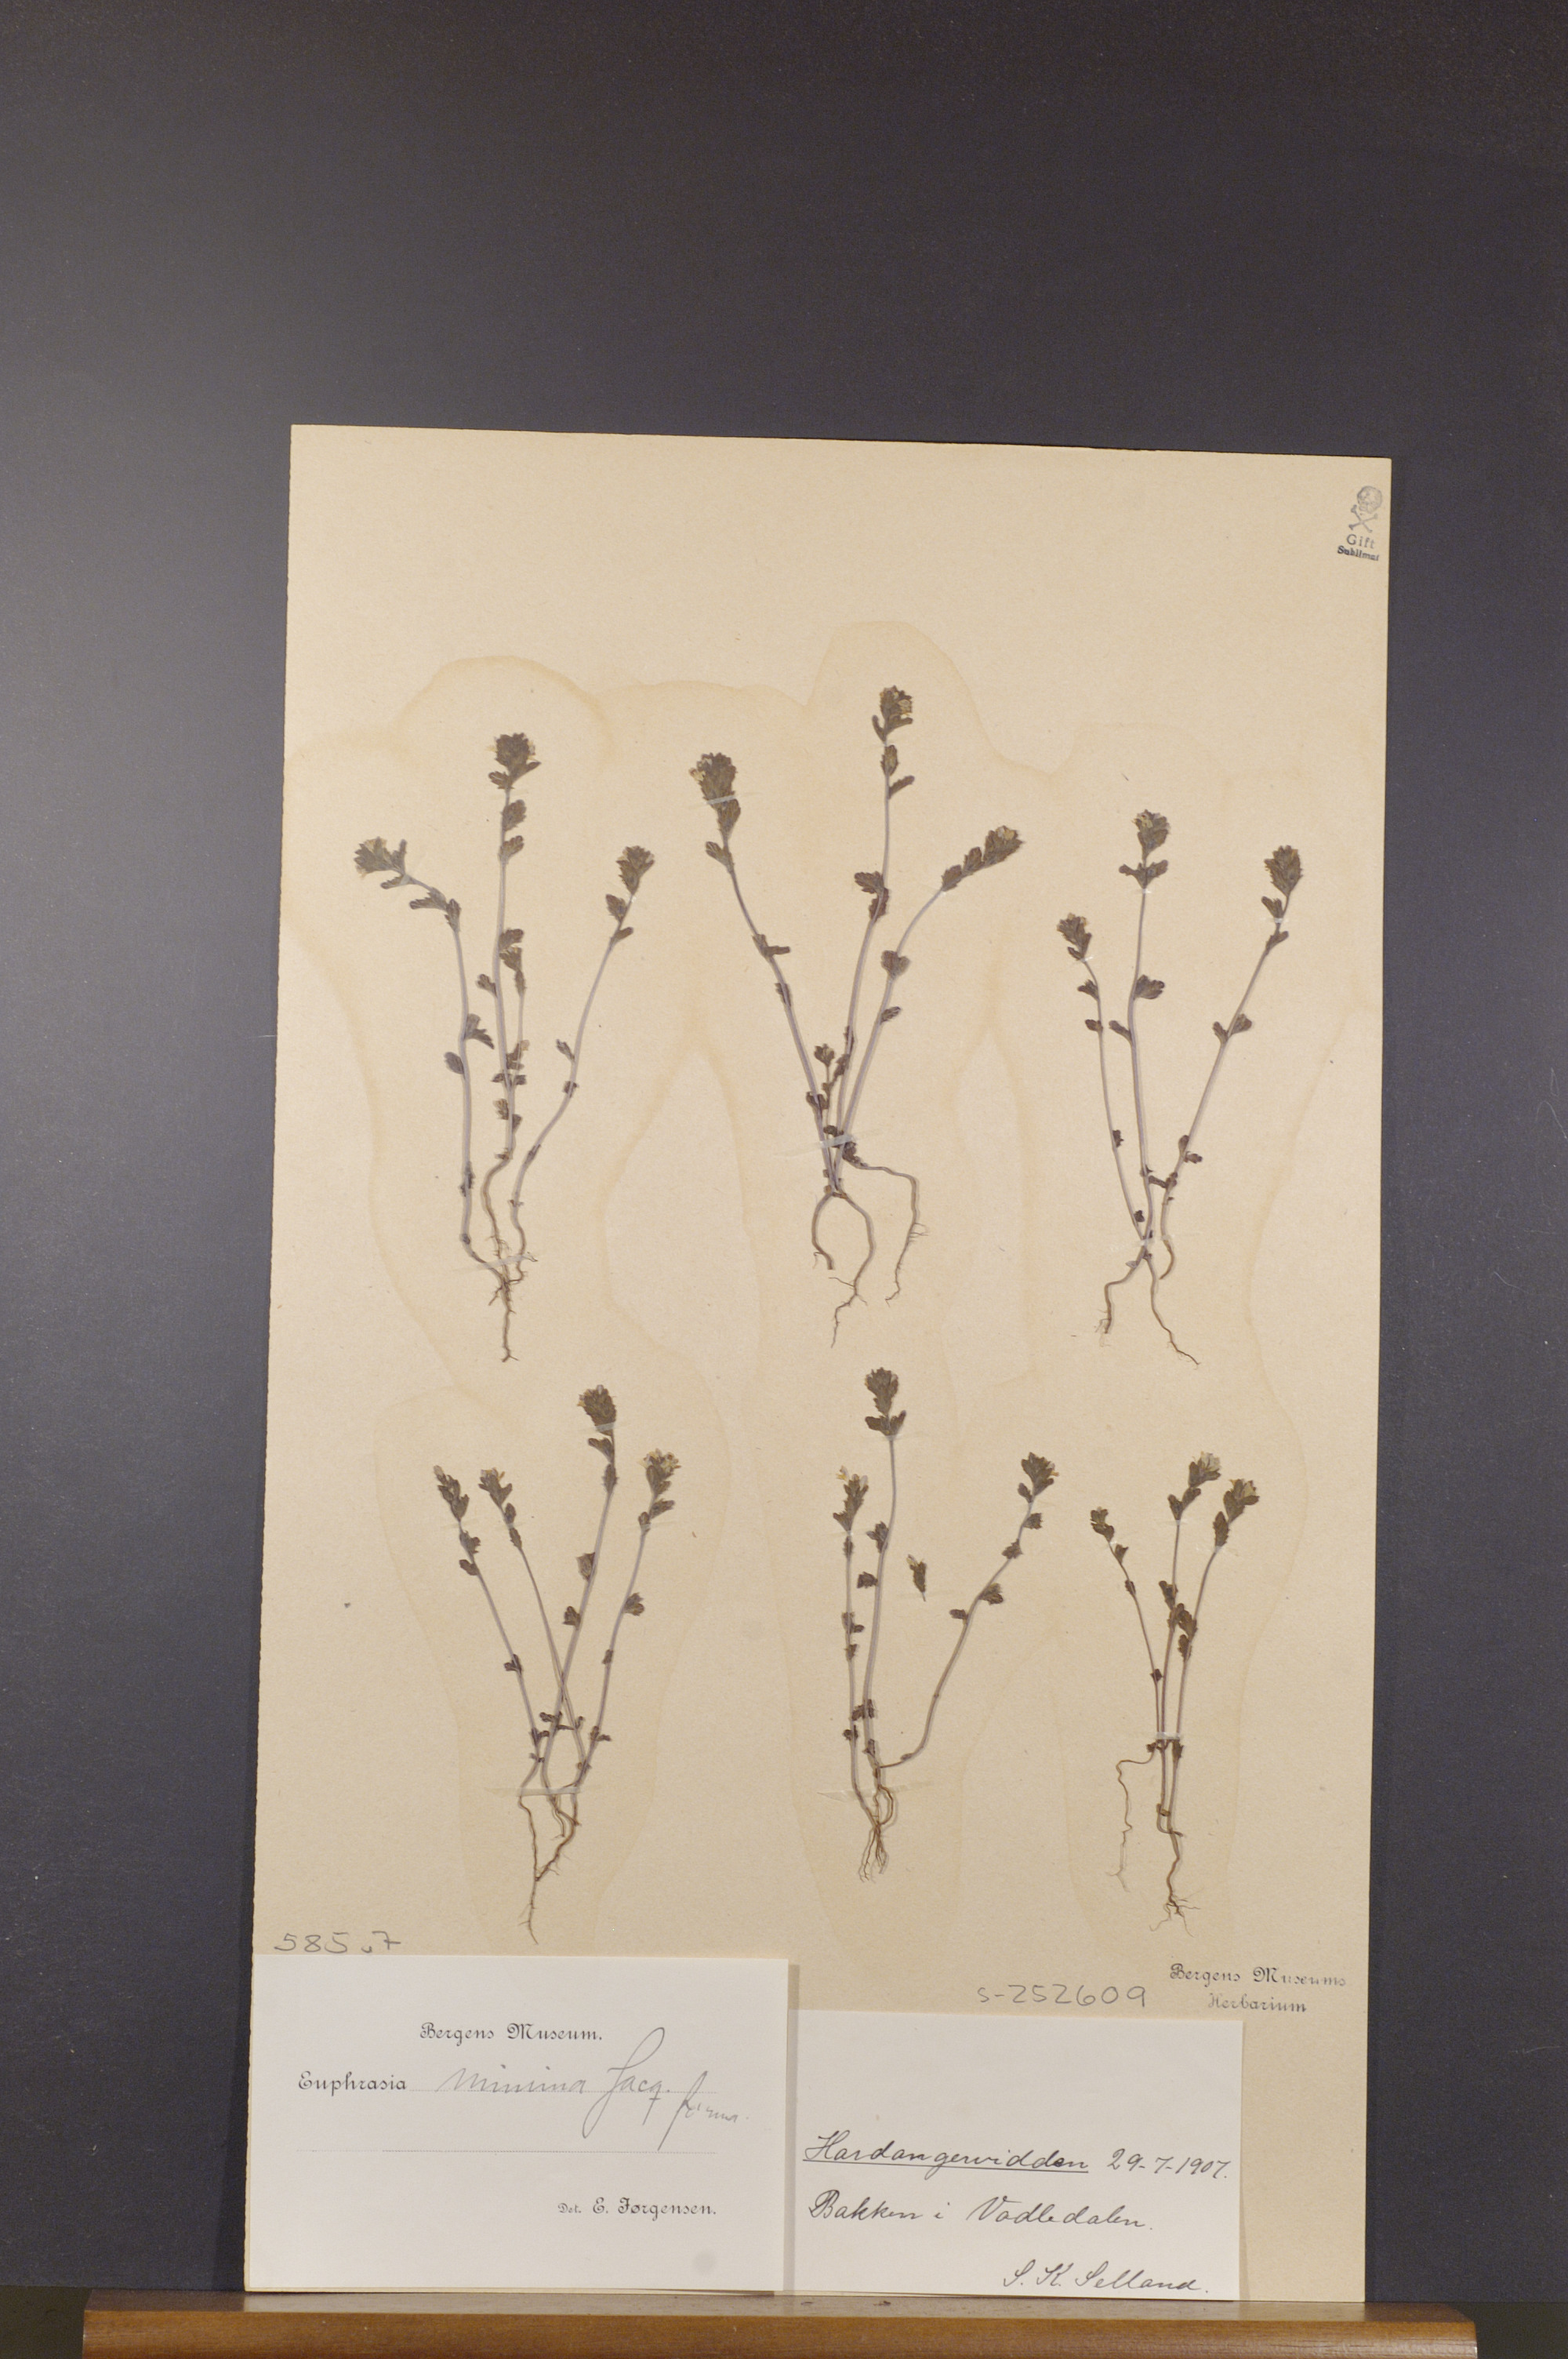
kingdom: Plantae
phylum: Tracheophyta
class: Magnoliopsida
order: Lamiales
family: Orobanchaceae
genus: Euphrasia
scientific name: Euphrasia minima
